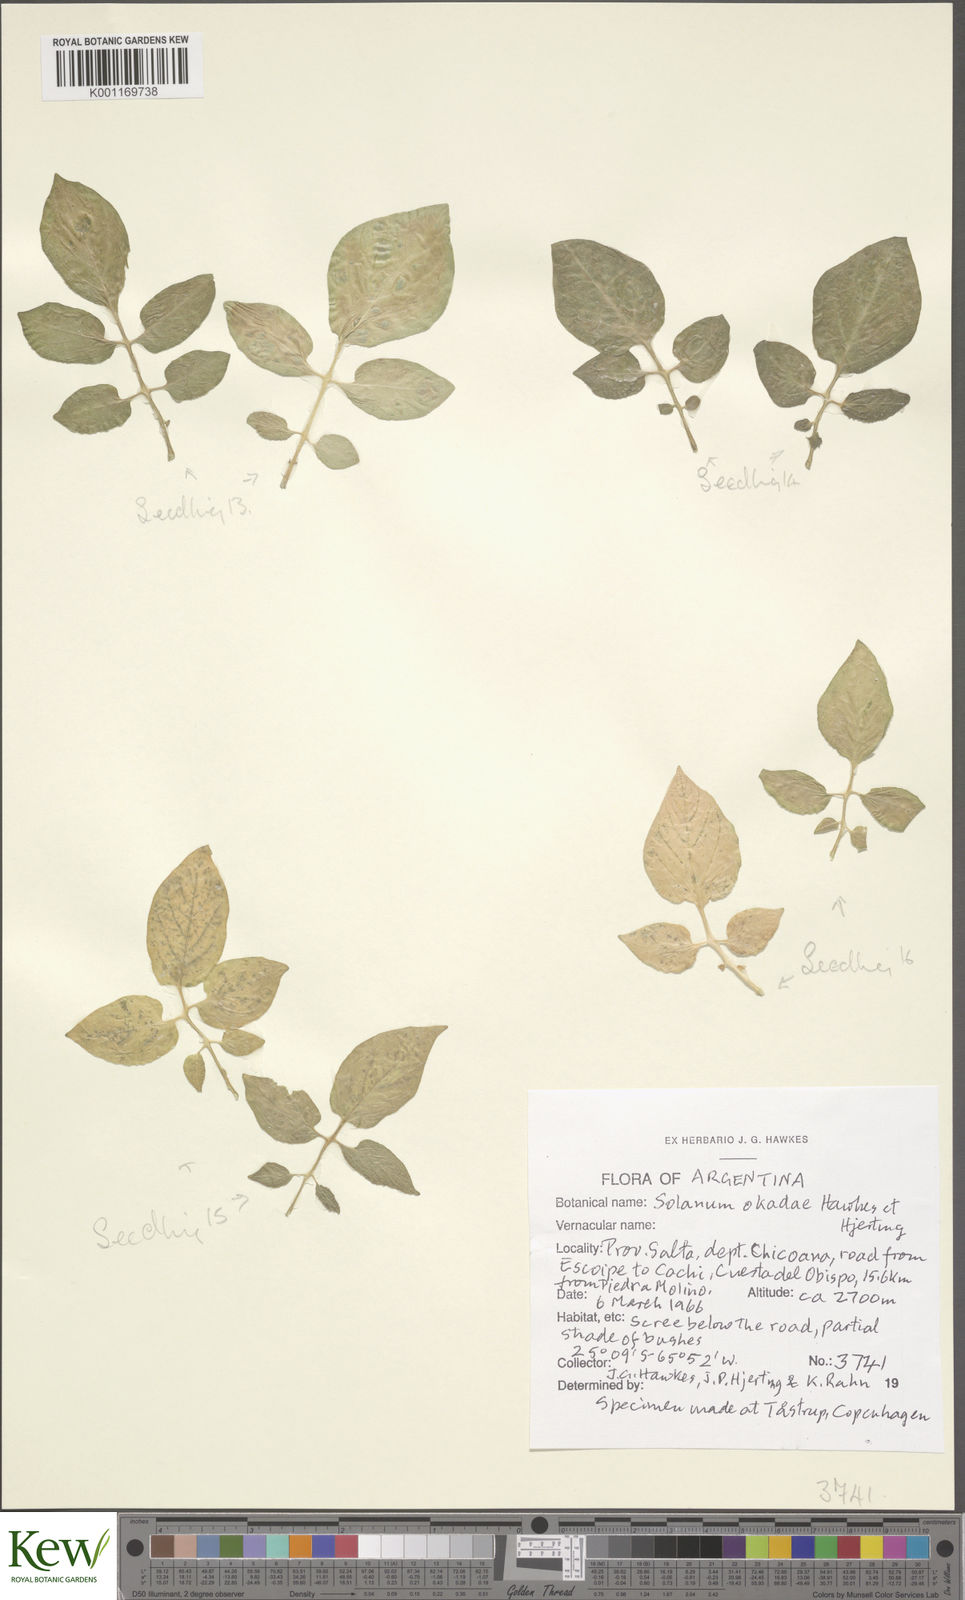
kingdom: Plantae
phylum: Tracheophyta
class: Magnoliopsida
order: Solanales
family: Solanaceae
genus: Solanum
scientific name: Solanum okadae
